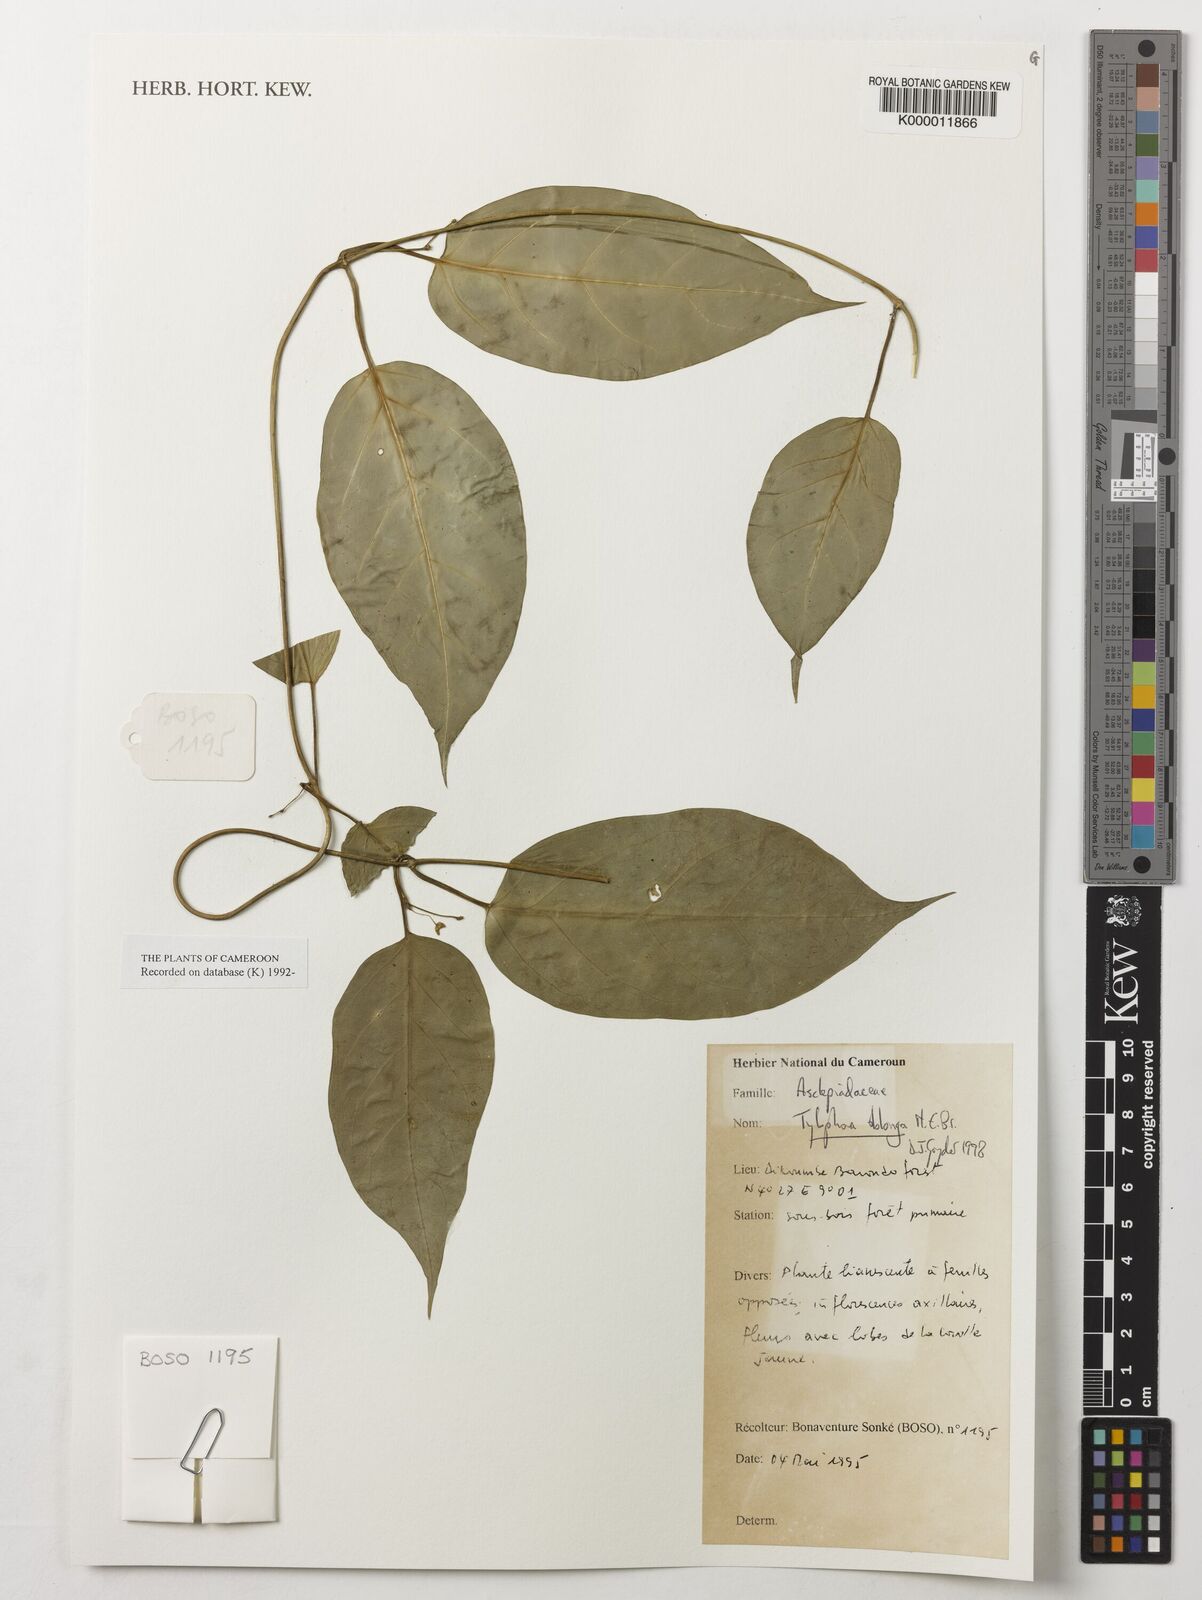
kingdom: Plantae
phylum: Tracheophyta
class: Magnoliopsida
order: Gentianales
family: Apocynaceae
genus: Vincetoxicum
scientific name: Vincetoxicum oblongum
